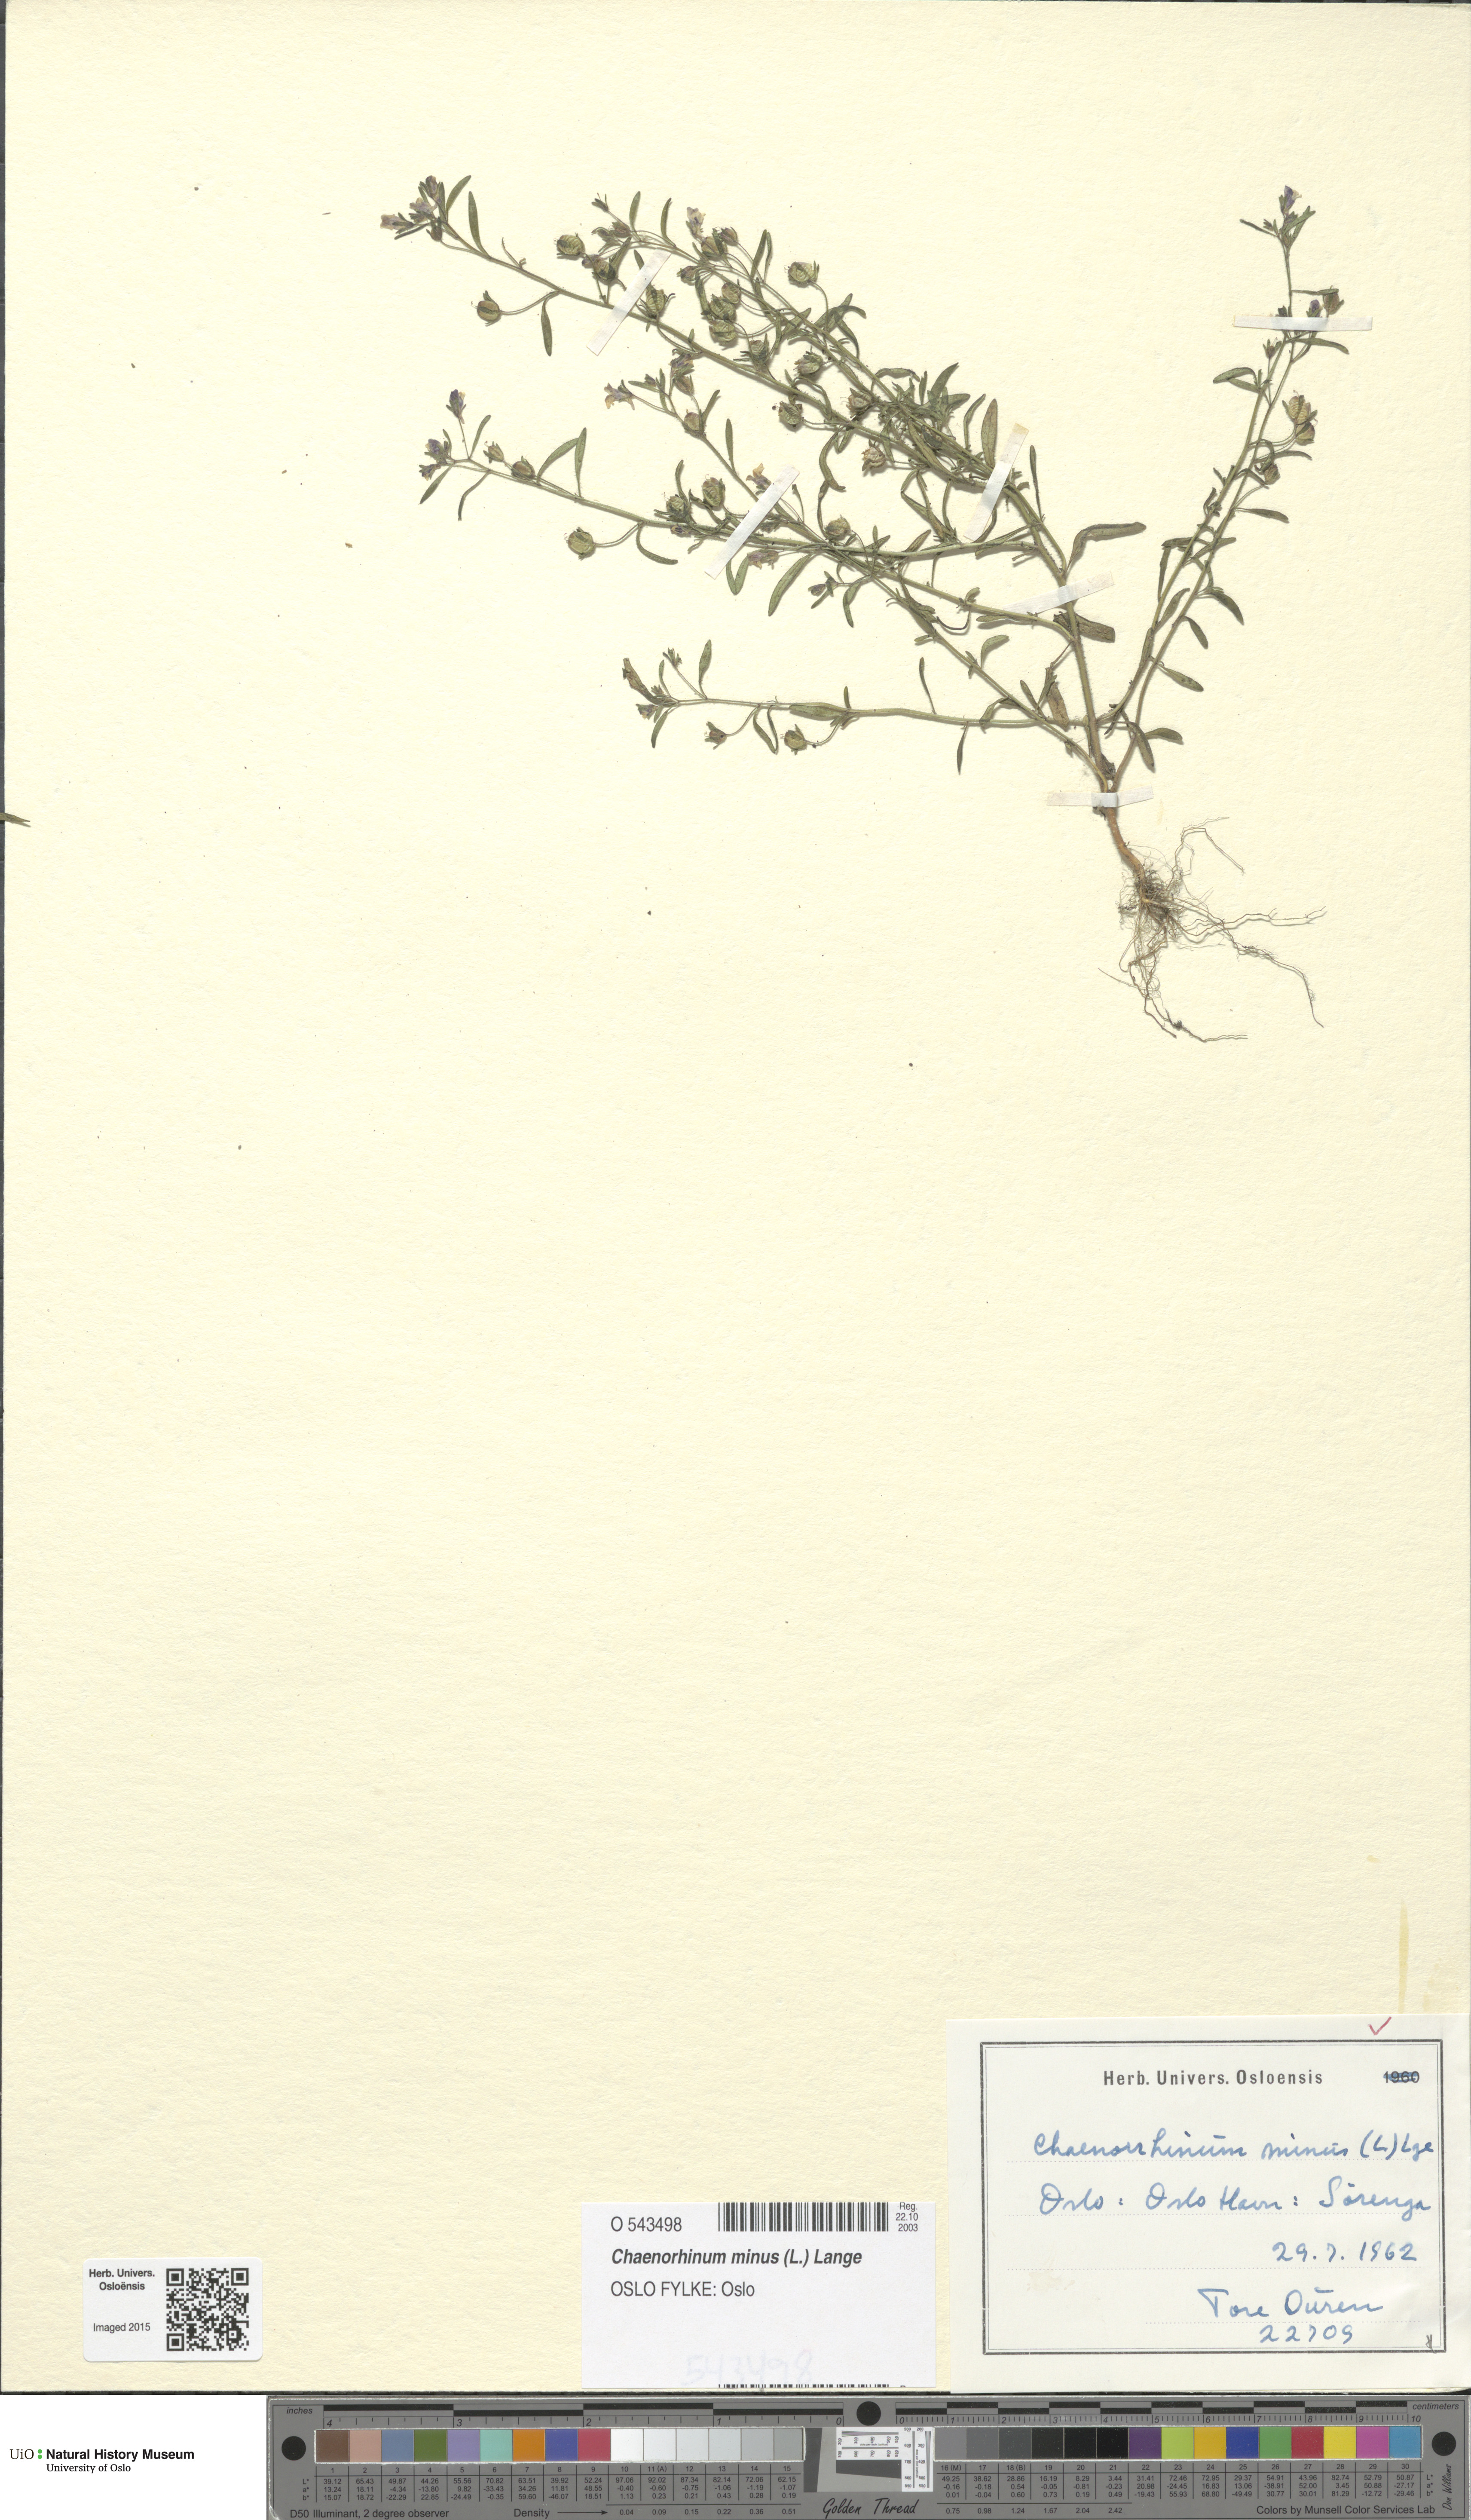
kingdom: Plantae
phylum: Tracheophyta
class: Magnoliopsida
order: Lamiales
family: Plantaginaceae
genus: Chaenorhinum
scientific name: Chaenorhinum minus
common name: Dwarf snapdragon
